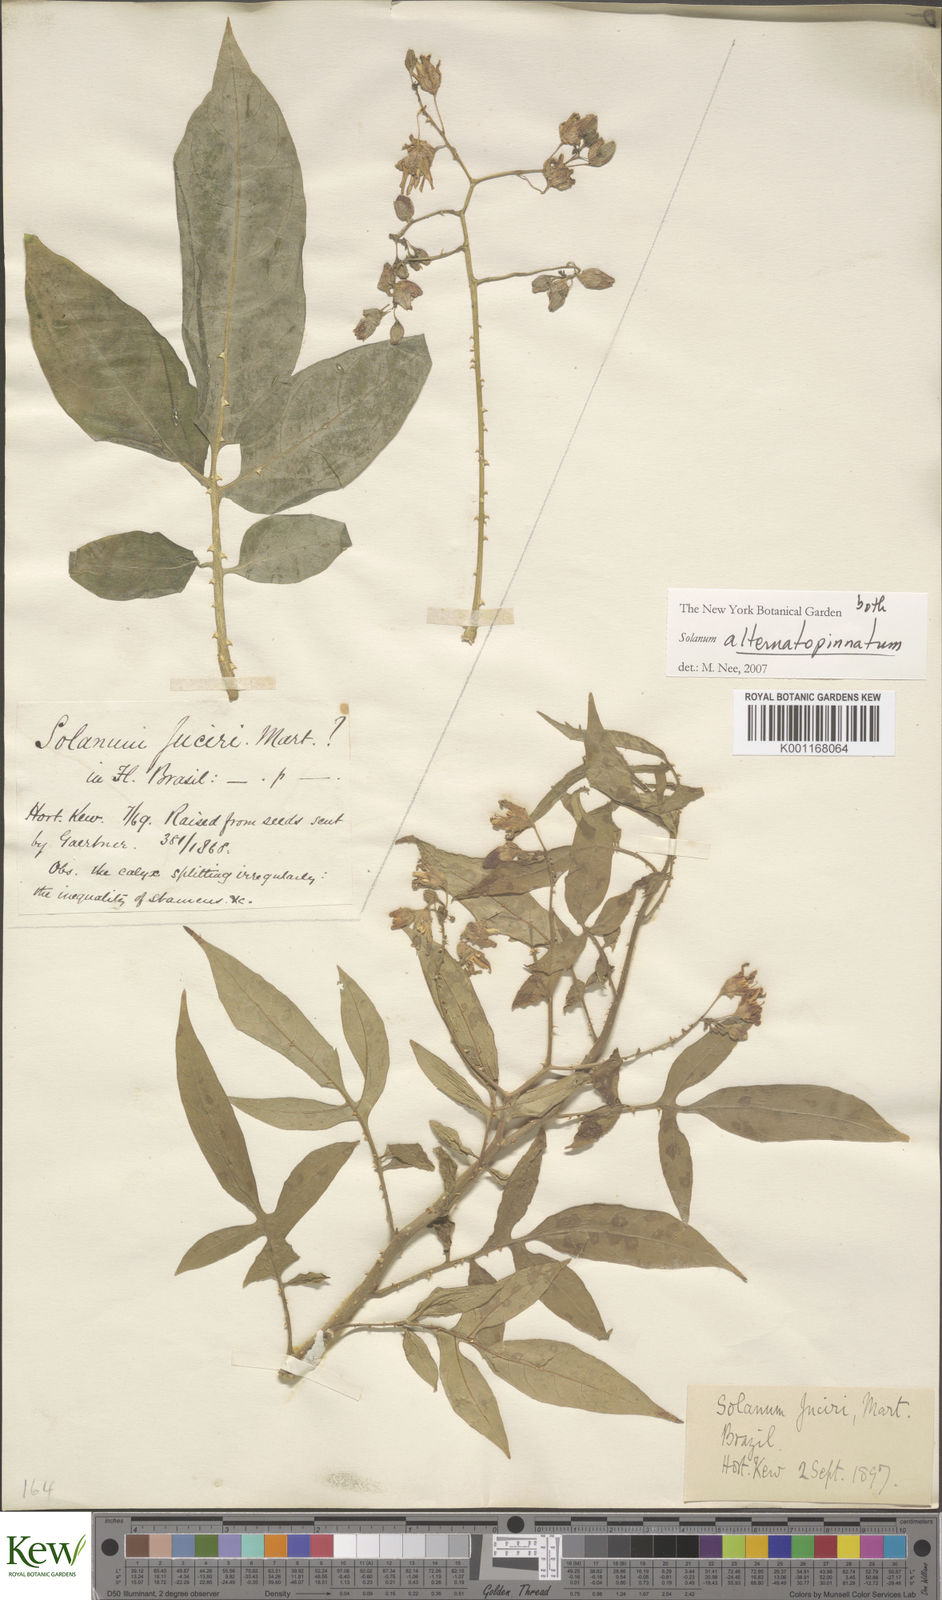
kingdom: Plantae
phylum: Tracheophyta
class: Magnoliopsida
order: Solanales
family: Solanaceae
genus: Solanum
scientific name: Solanum alternatopinnatum
